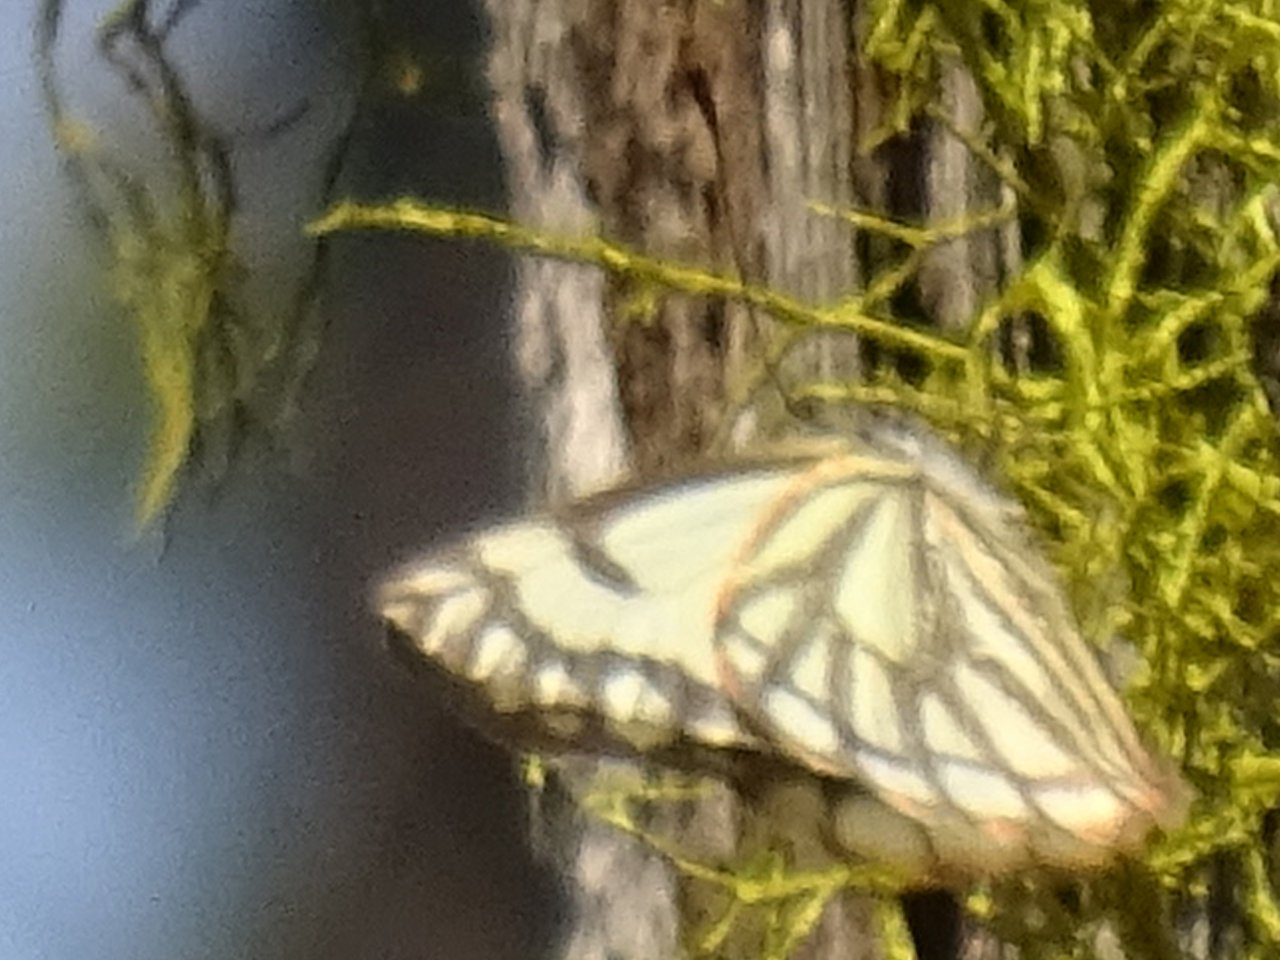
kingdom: Animalia
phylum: Arthropoda
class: Insecta
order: Lepidoptera
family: Pieridae
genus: Neophasia
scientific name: Neophasia menapia
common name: Pine White
